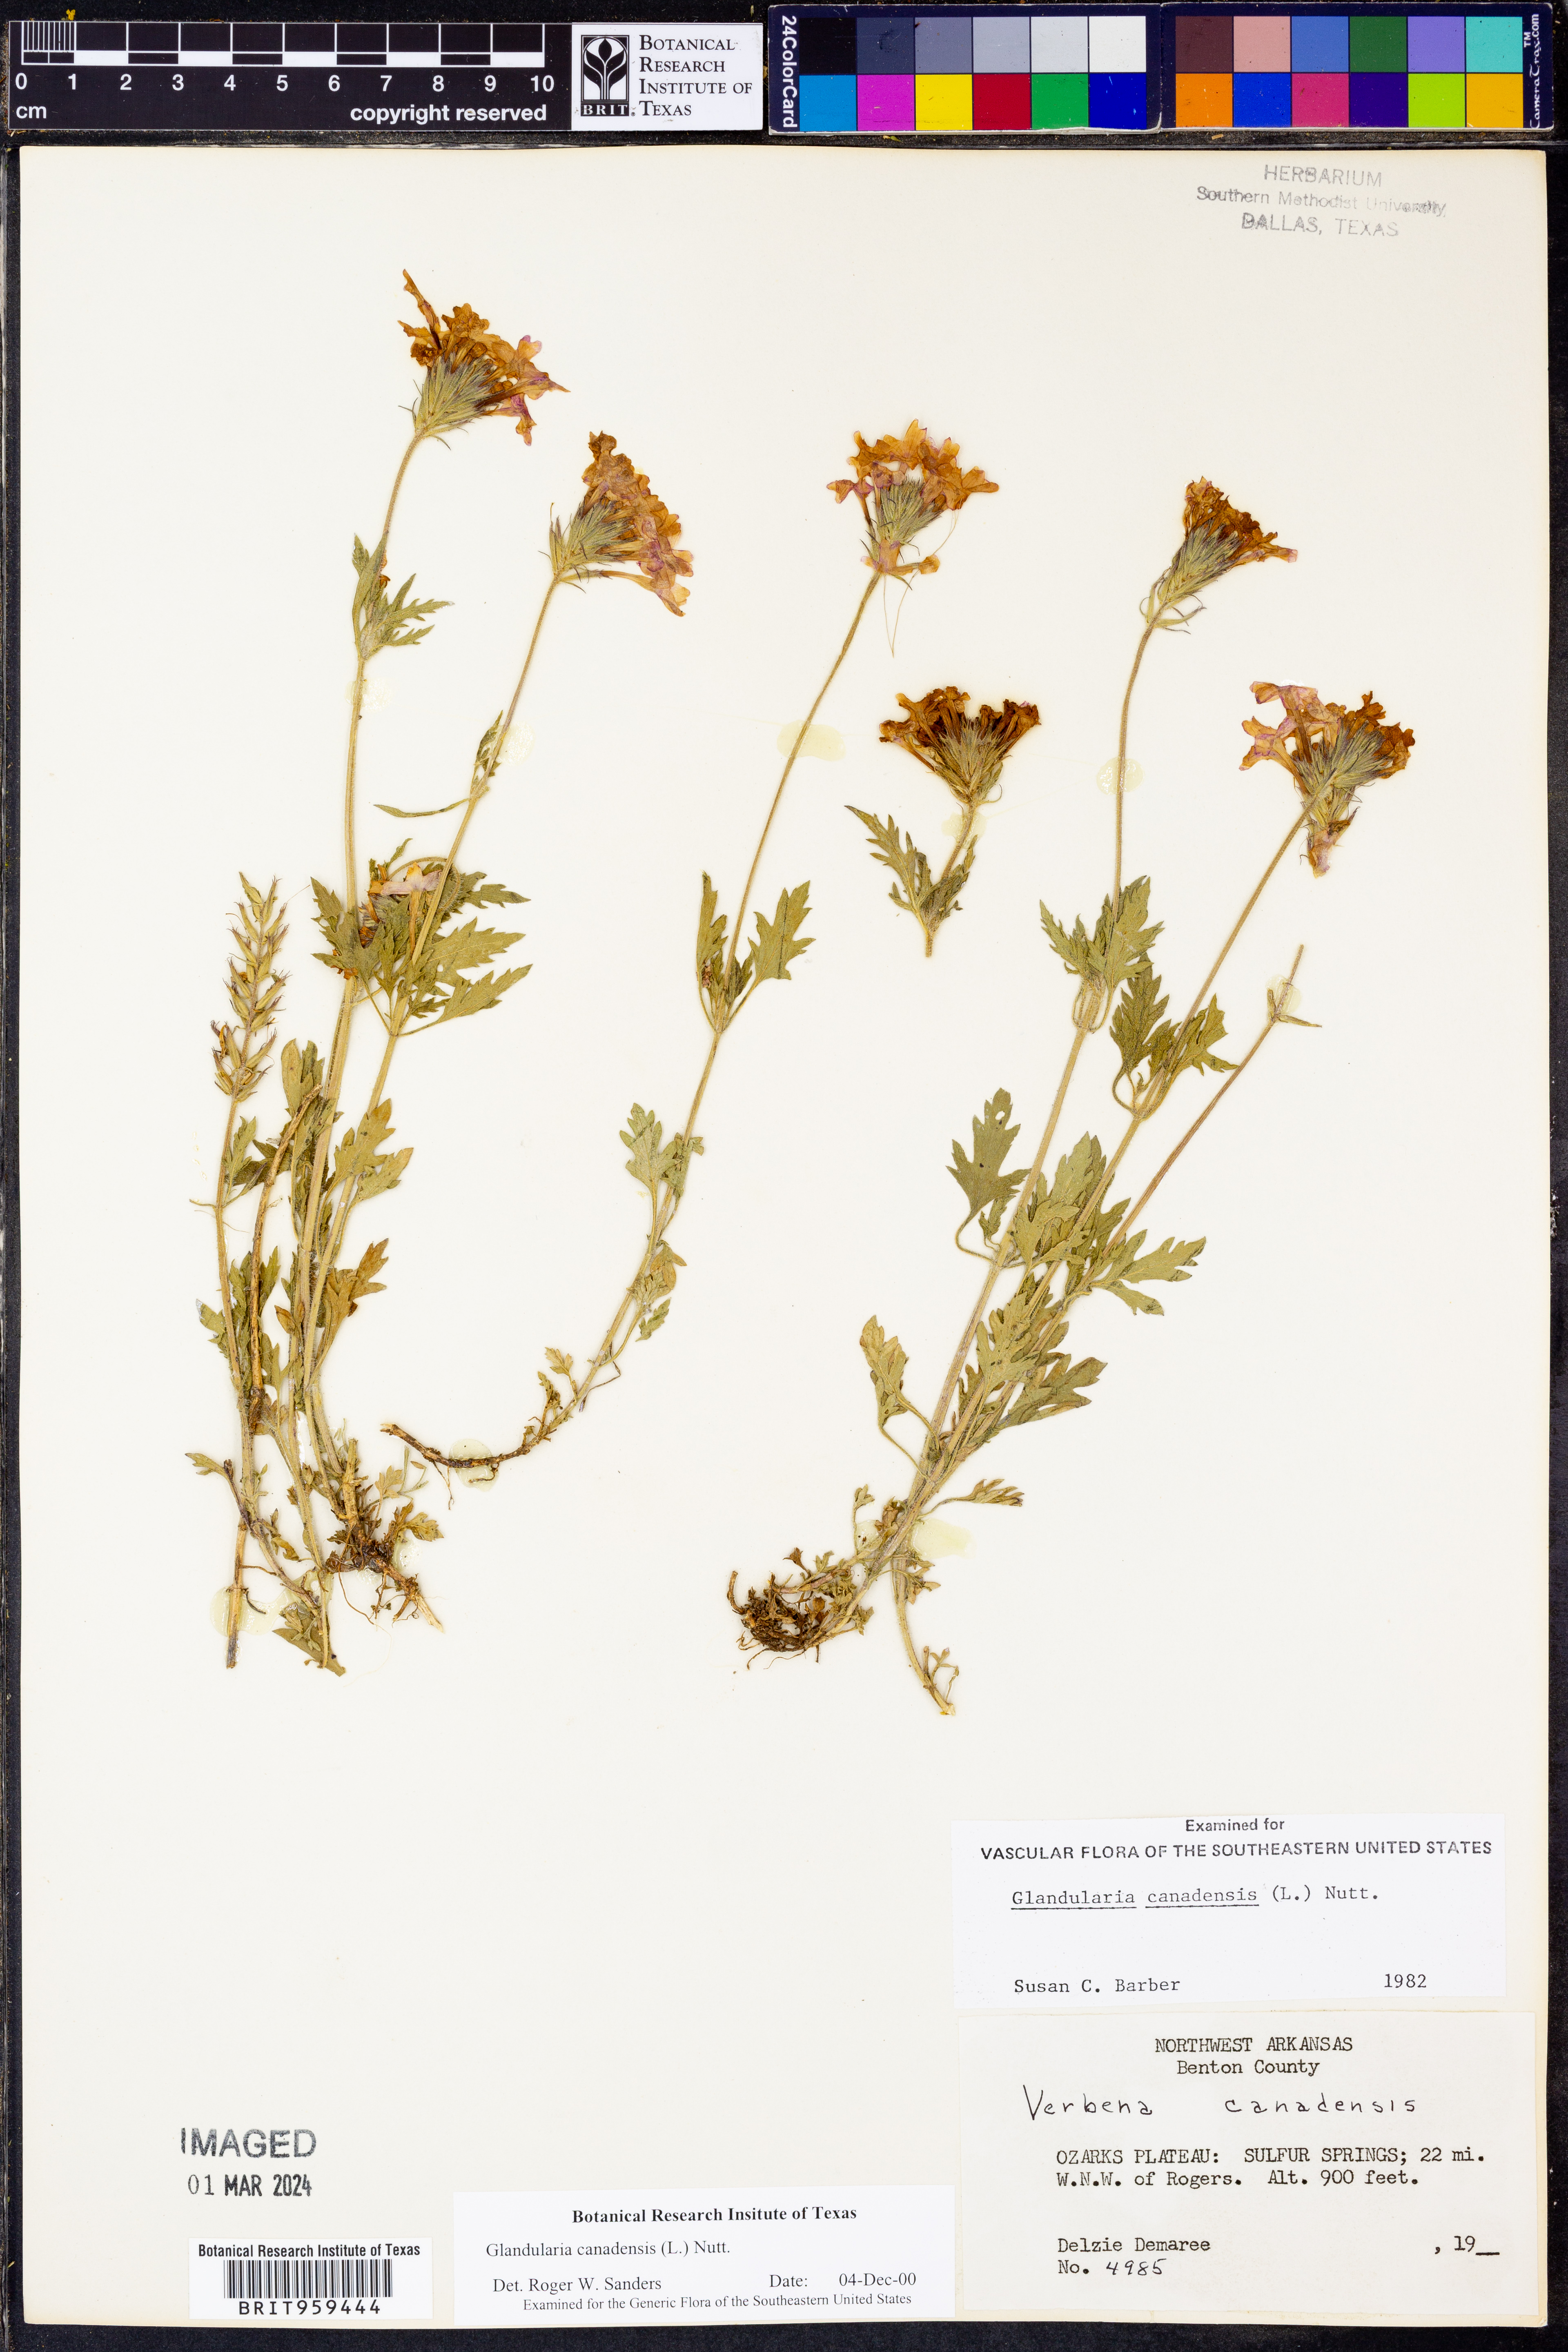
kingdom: Plantae
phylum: Tracheophyta
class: Magnoliopsida
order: Lamiales
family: Verbenaceae
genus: Verbena
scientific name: Verbena canadensis
